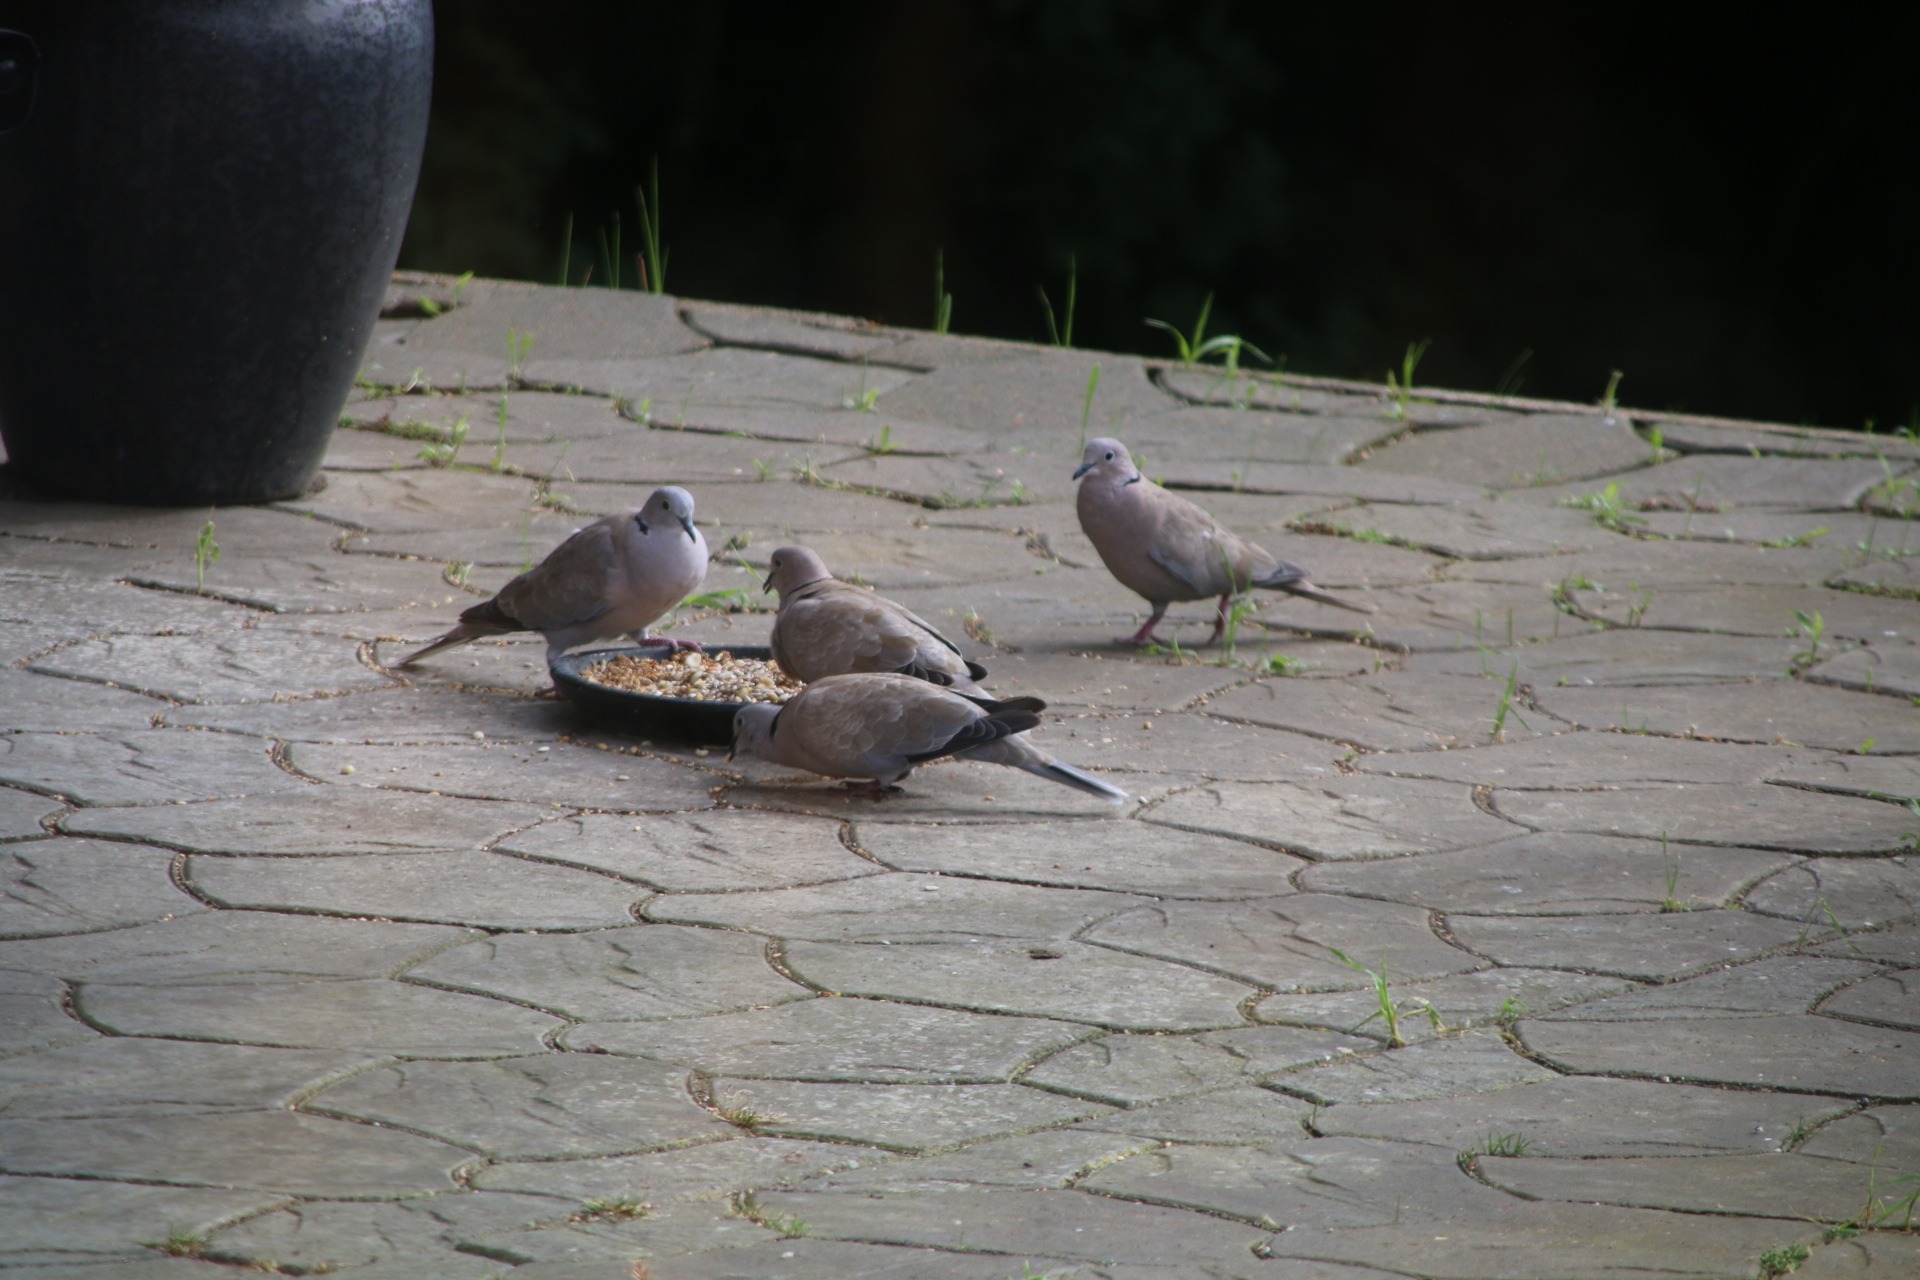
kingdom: Animalia
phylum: Chordata
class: Aves
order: Columbiformes
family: Columbidae
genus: Streptopelia
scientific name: Streptopelia decaocto
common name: Tyrkerdue
